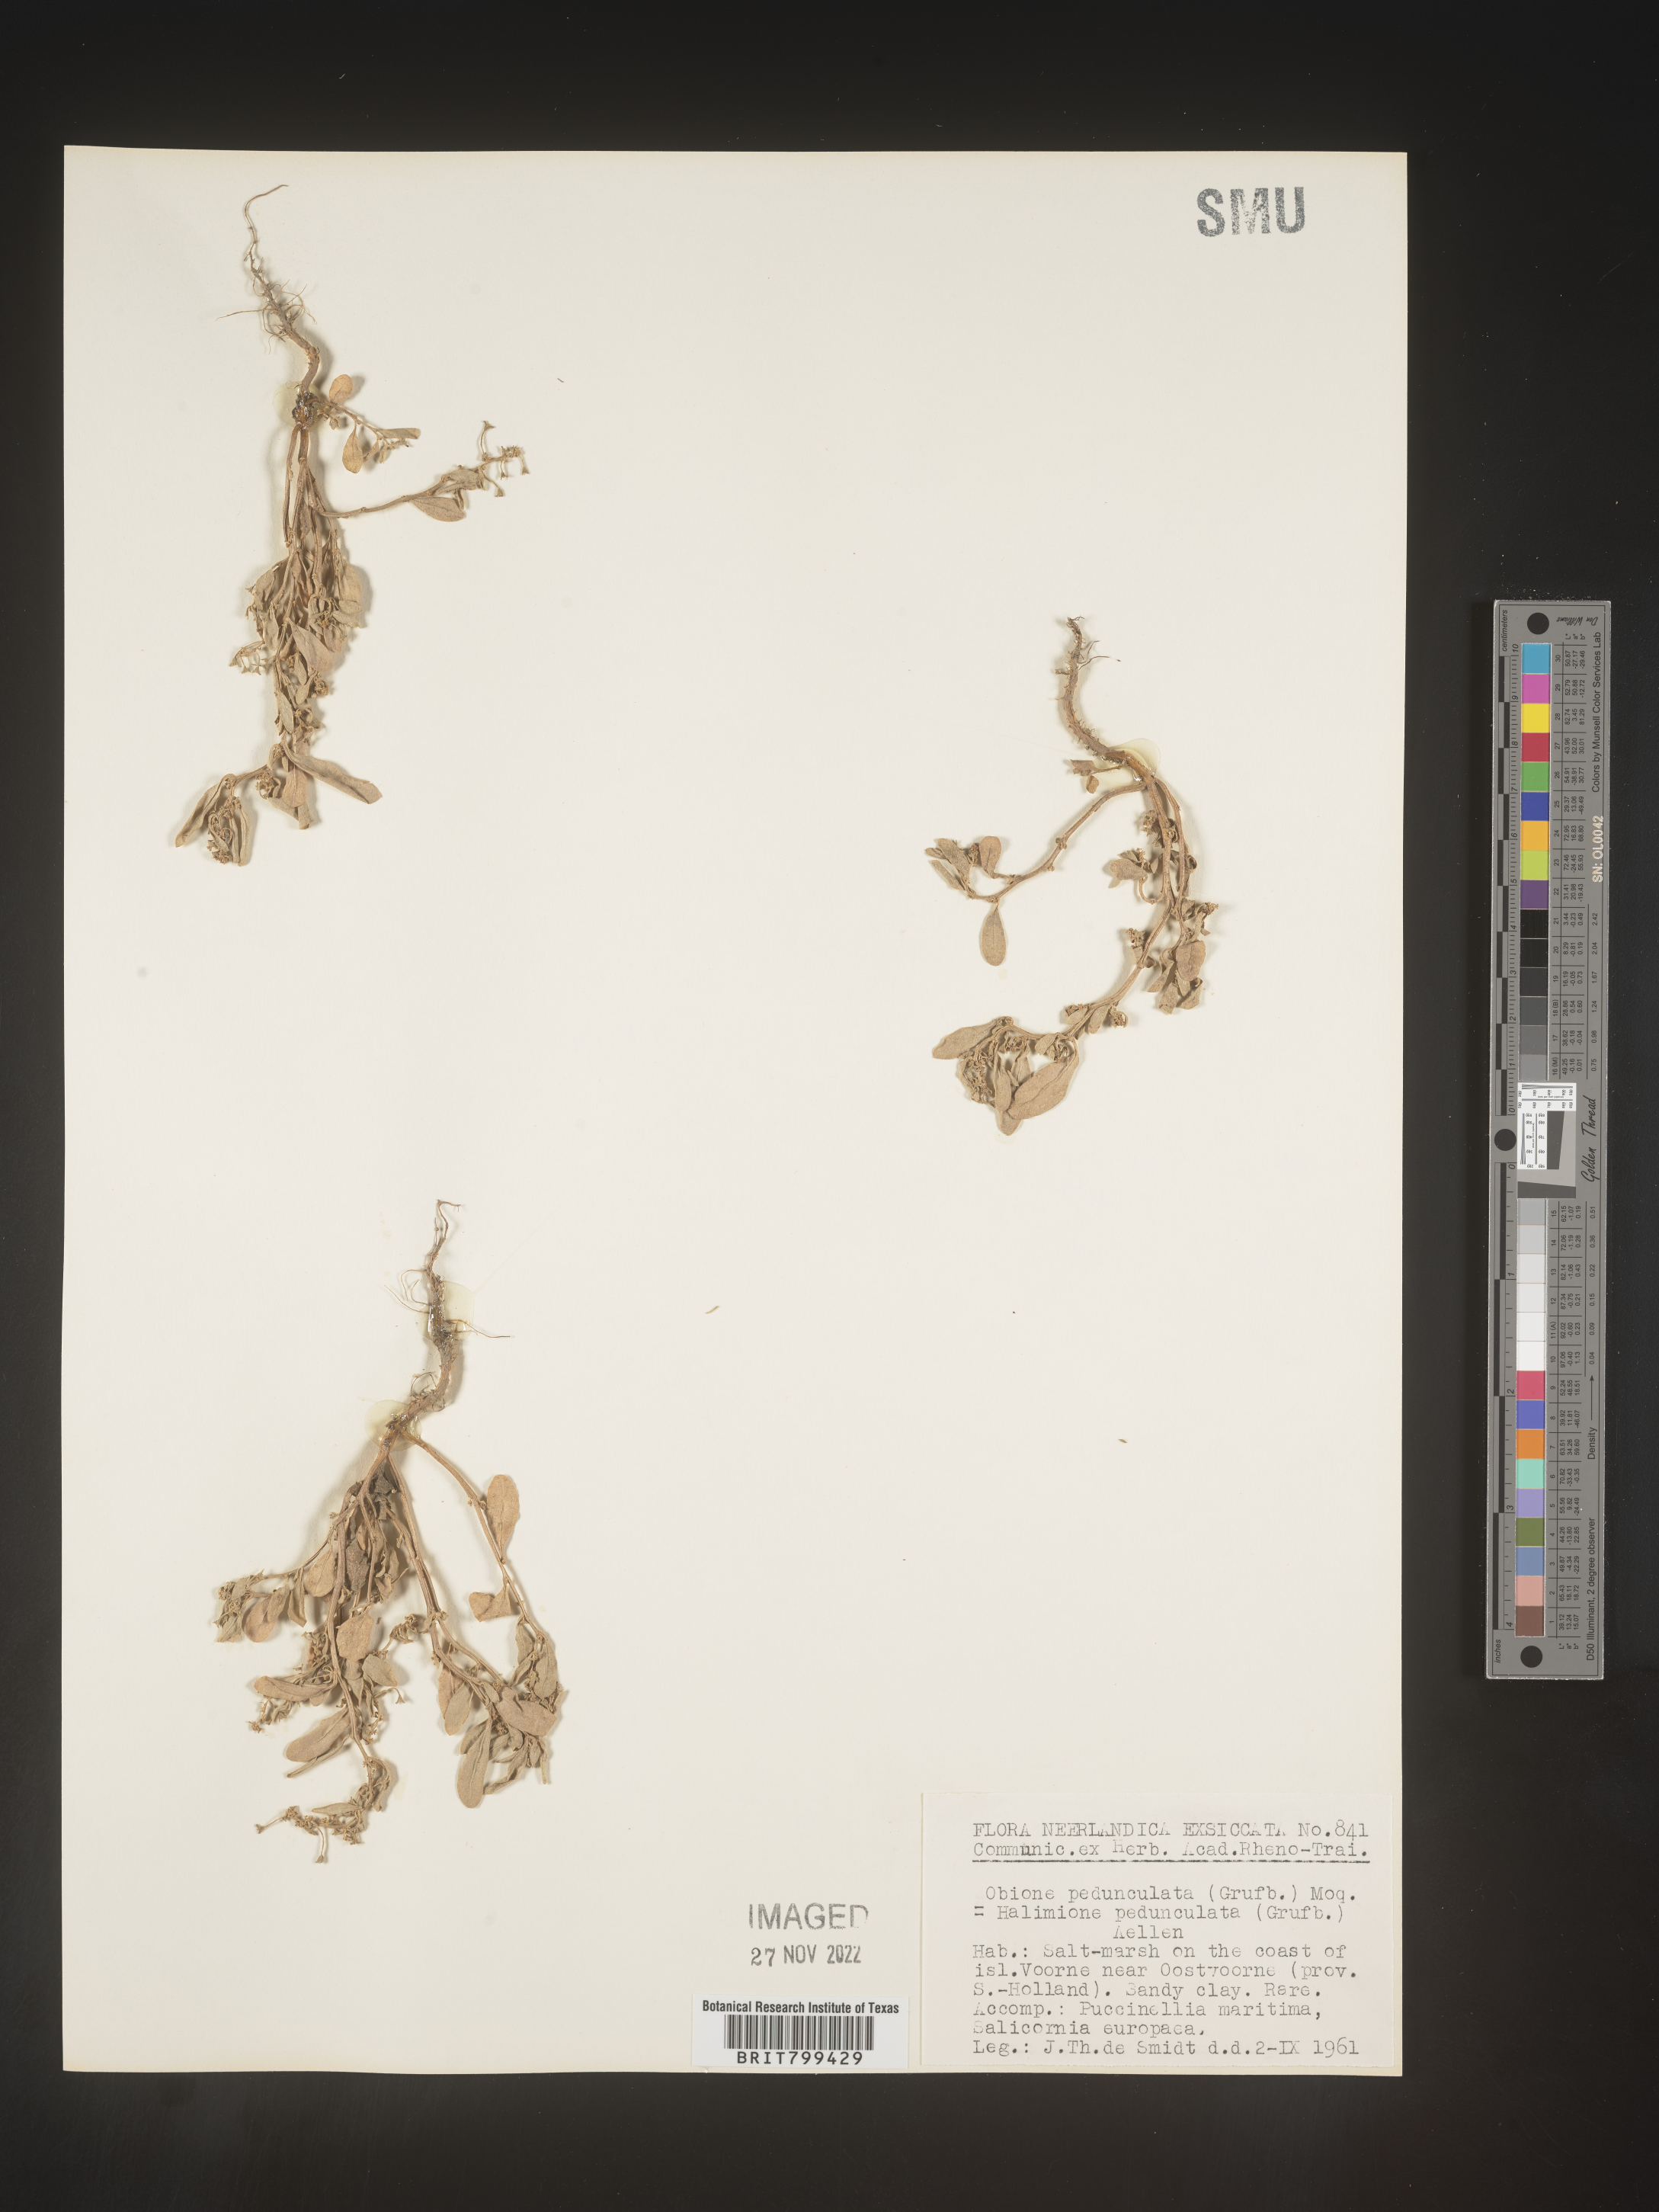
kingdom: Plantae
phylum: Tracheophyta
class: Magnoliopsida
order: Caryophyllales
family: Amaranthaceae
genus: Halimione
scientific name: Halimione
